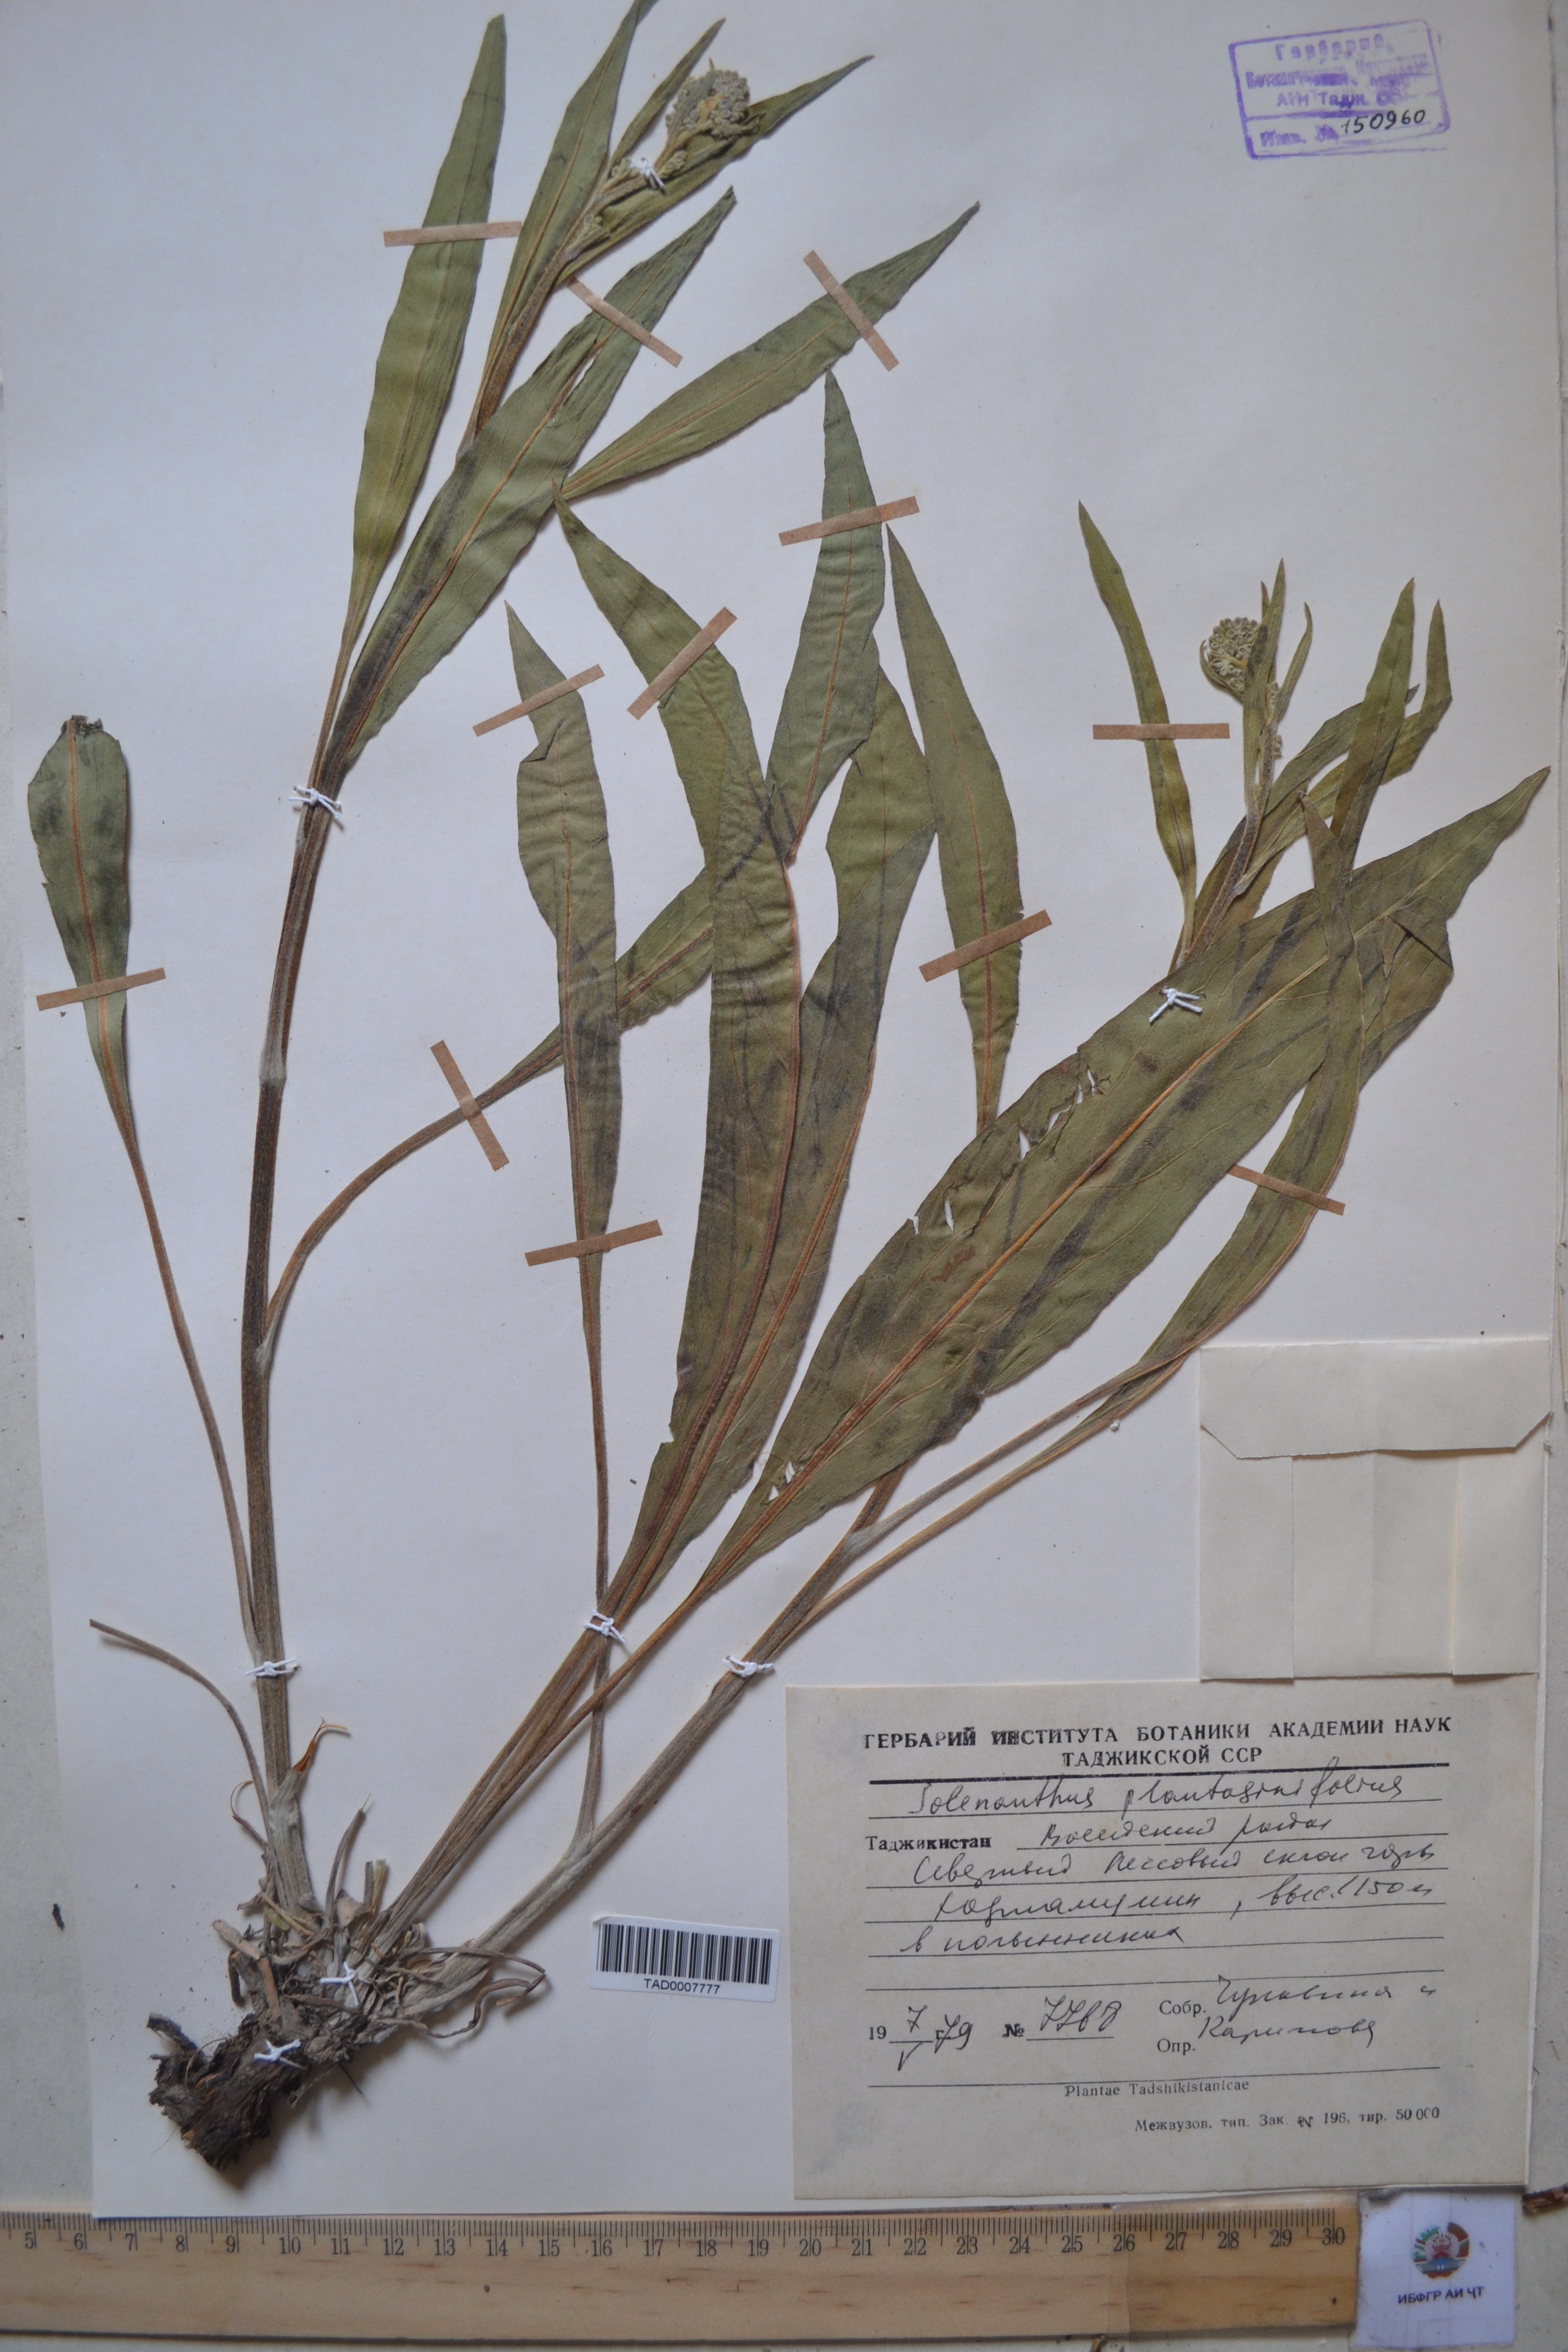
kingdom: Plantae
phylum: Tracheophyta
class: Magnoliopsida
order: Boraginales
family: Boraginaceae
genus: Solenanthus
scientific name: Solenanthus plantaginifolius
